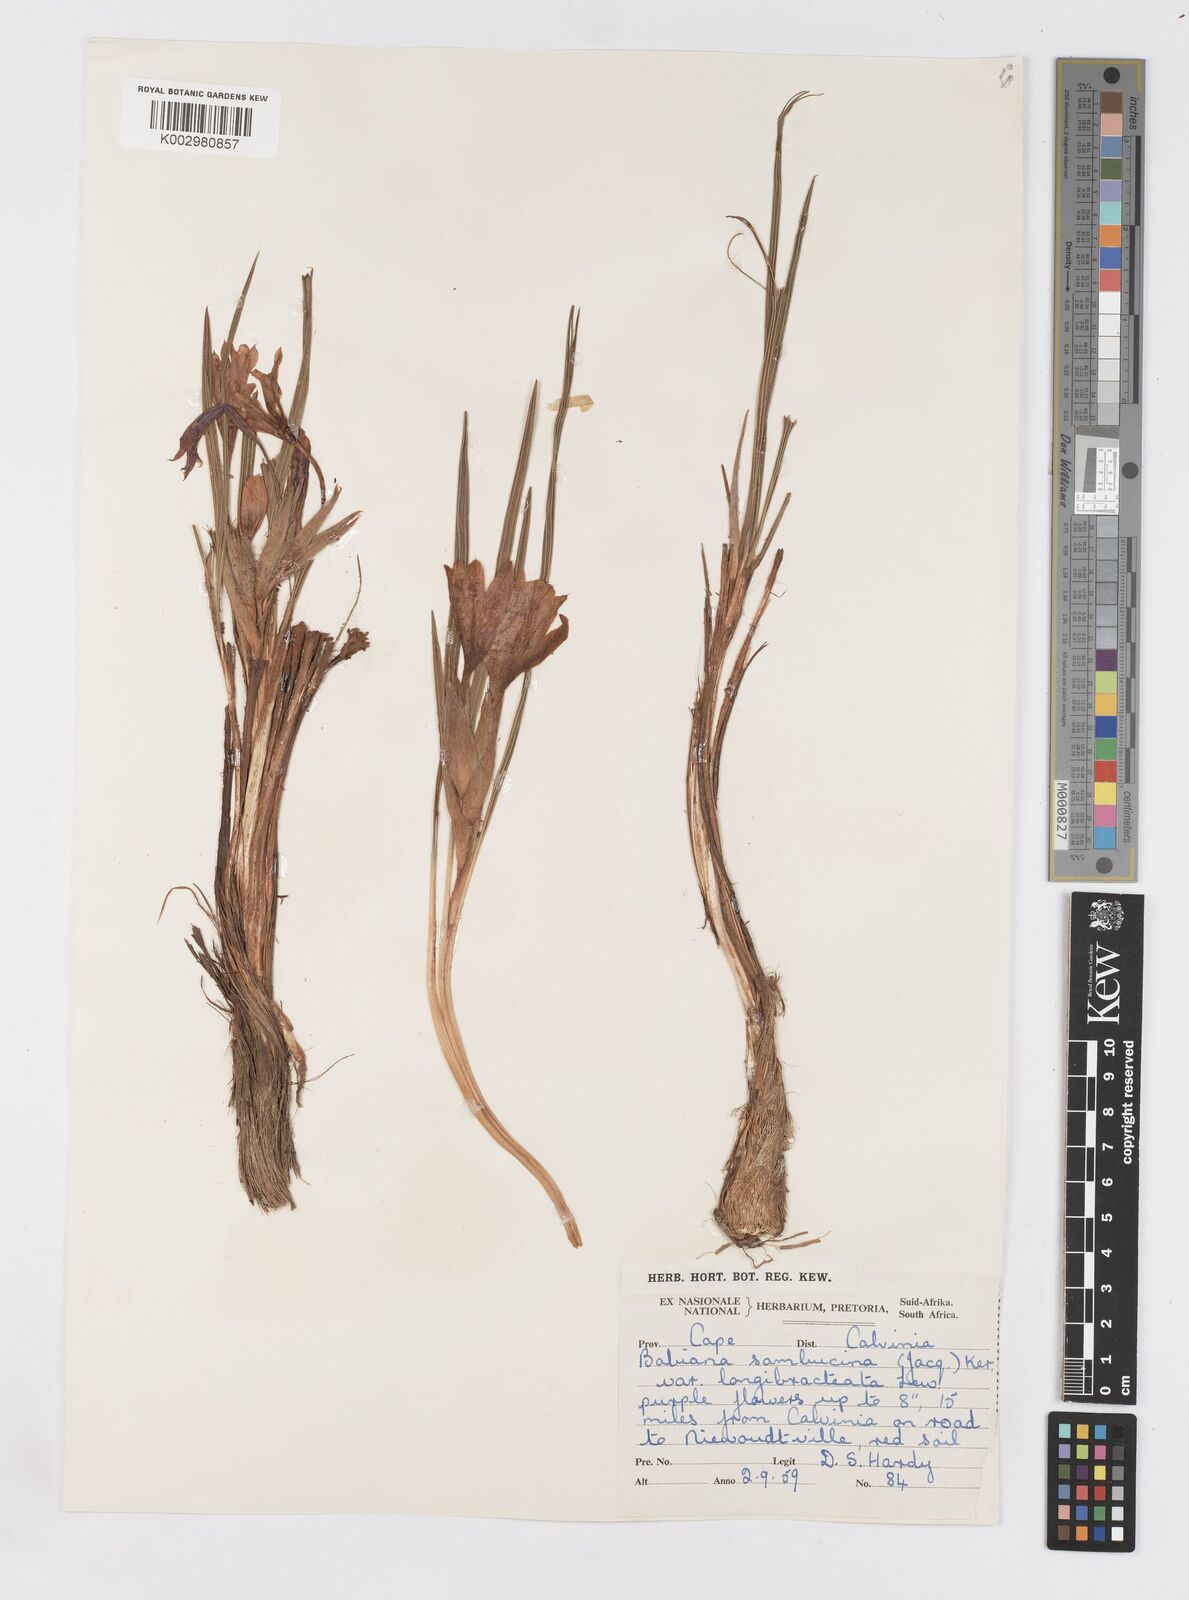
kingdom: Plantae
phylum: Tracheophyta
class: Liliopsida
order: Asparagales
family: Iridaceae
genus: Babiana
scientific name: Babiana sambucina
